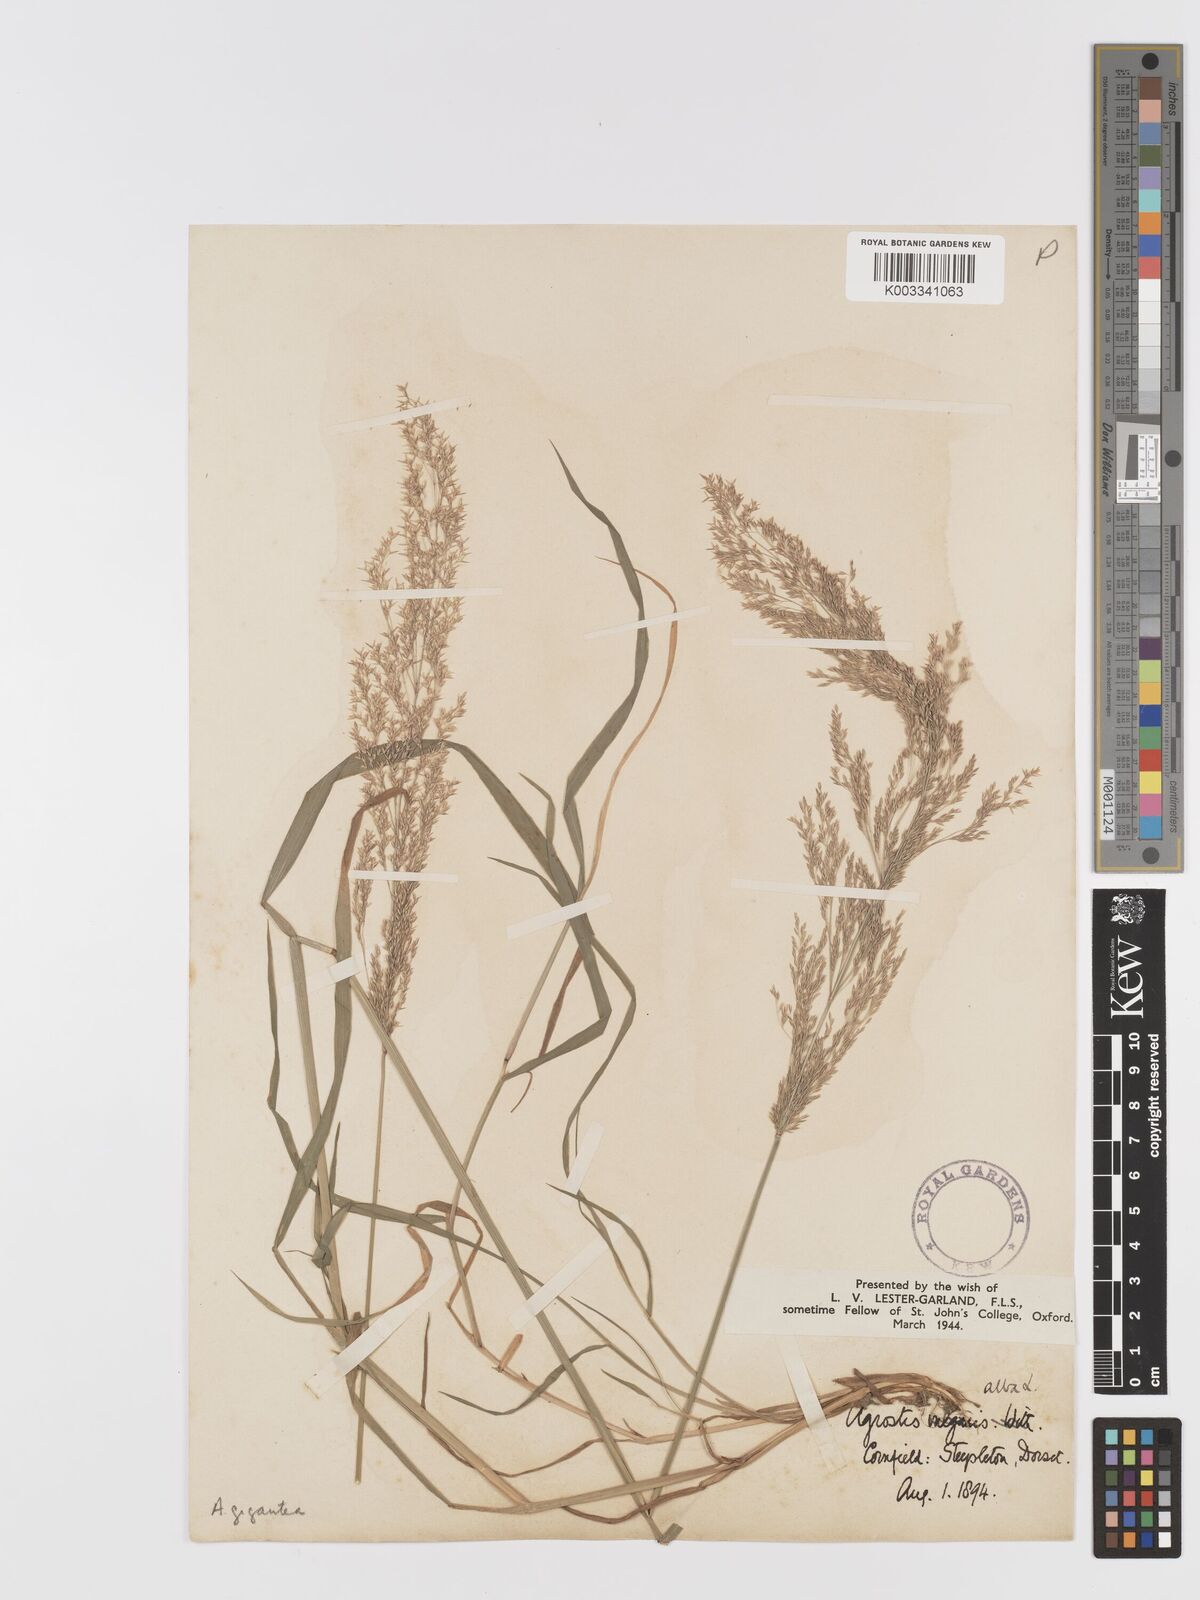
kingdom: Plantae
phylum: Tracheophyta
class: Liliopsida
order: Poales
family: Poaceae
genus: Agrostis
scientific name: Agrostis gigantea
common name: Black bent
